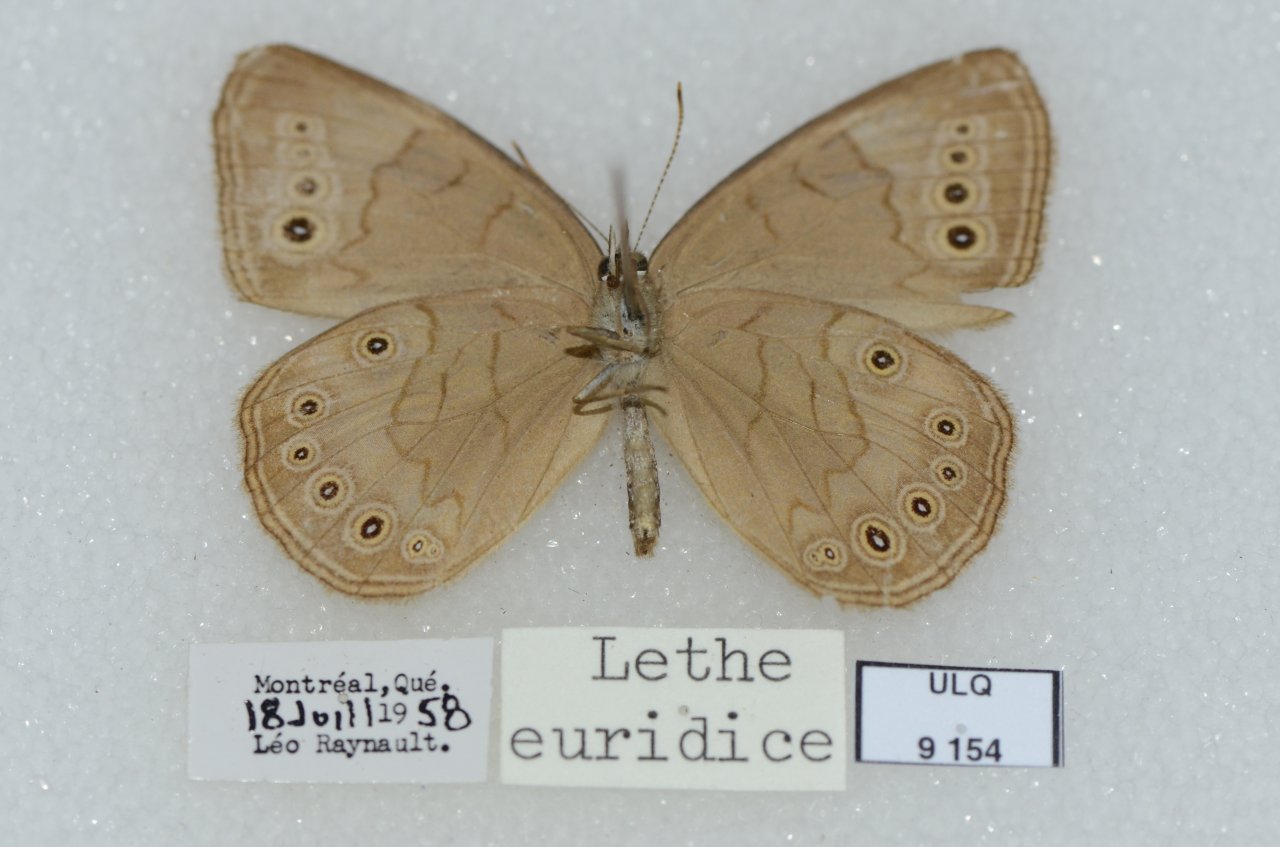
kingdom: Animalia
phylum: Arthropoda
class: Insecta
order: Lepidoptera
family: Nymphalidae
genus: Lethe
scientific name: Lethe eurydice
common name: Eyed Brown
